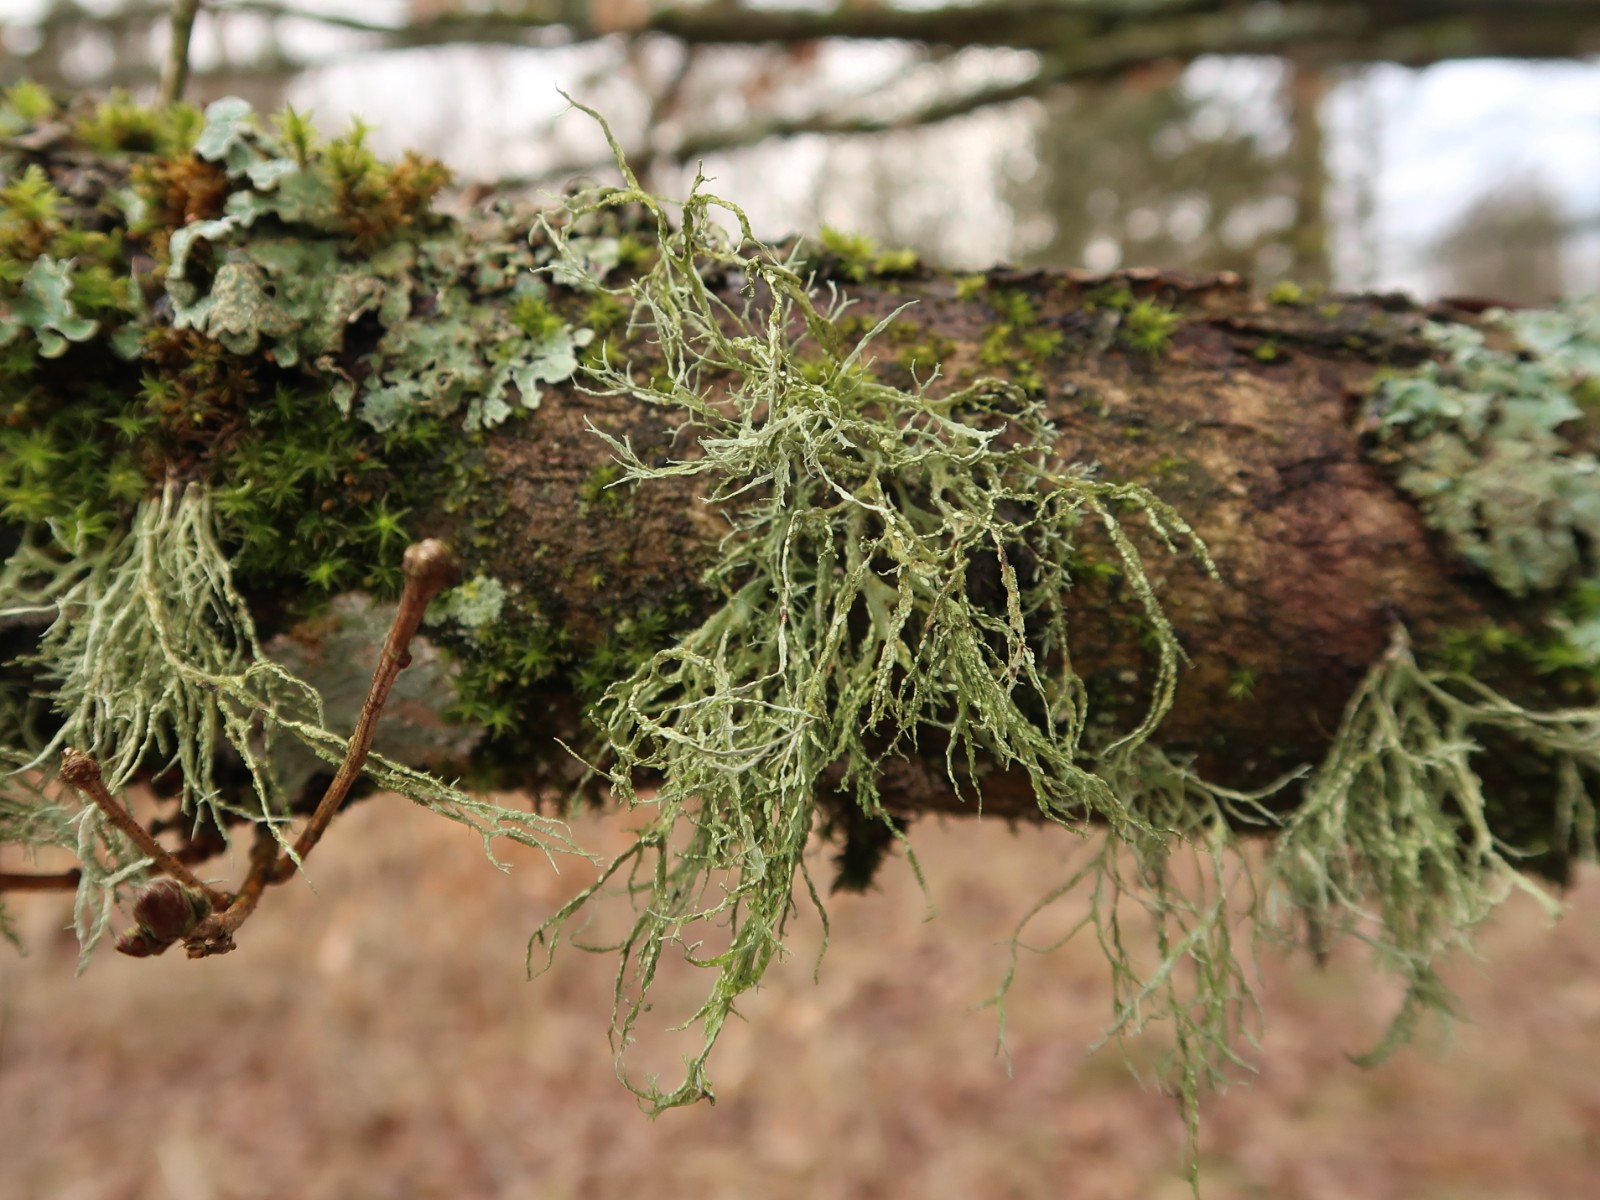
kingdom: Fungi
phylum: Ascomycota
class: Lecanoromycetes
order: Lecanorales
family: Ramalinaceae
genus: Ramalina
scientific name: Ramalina farinacea
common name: melet grenlav
